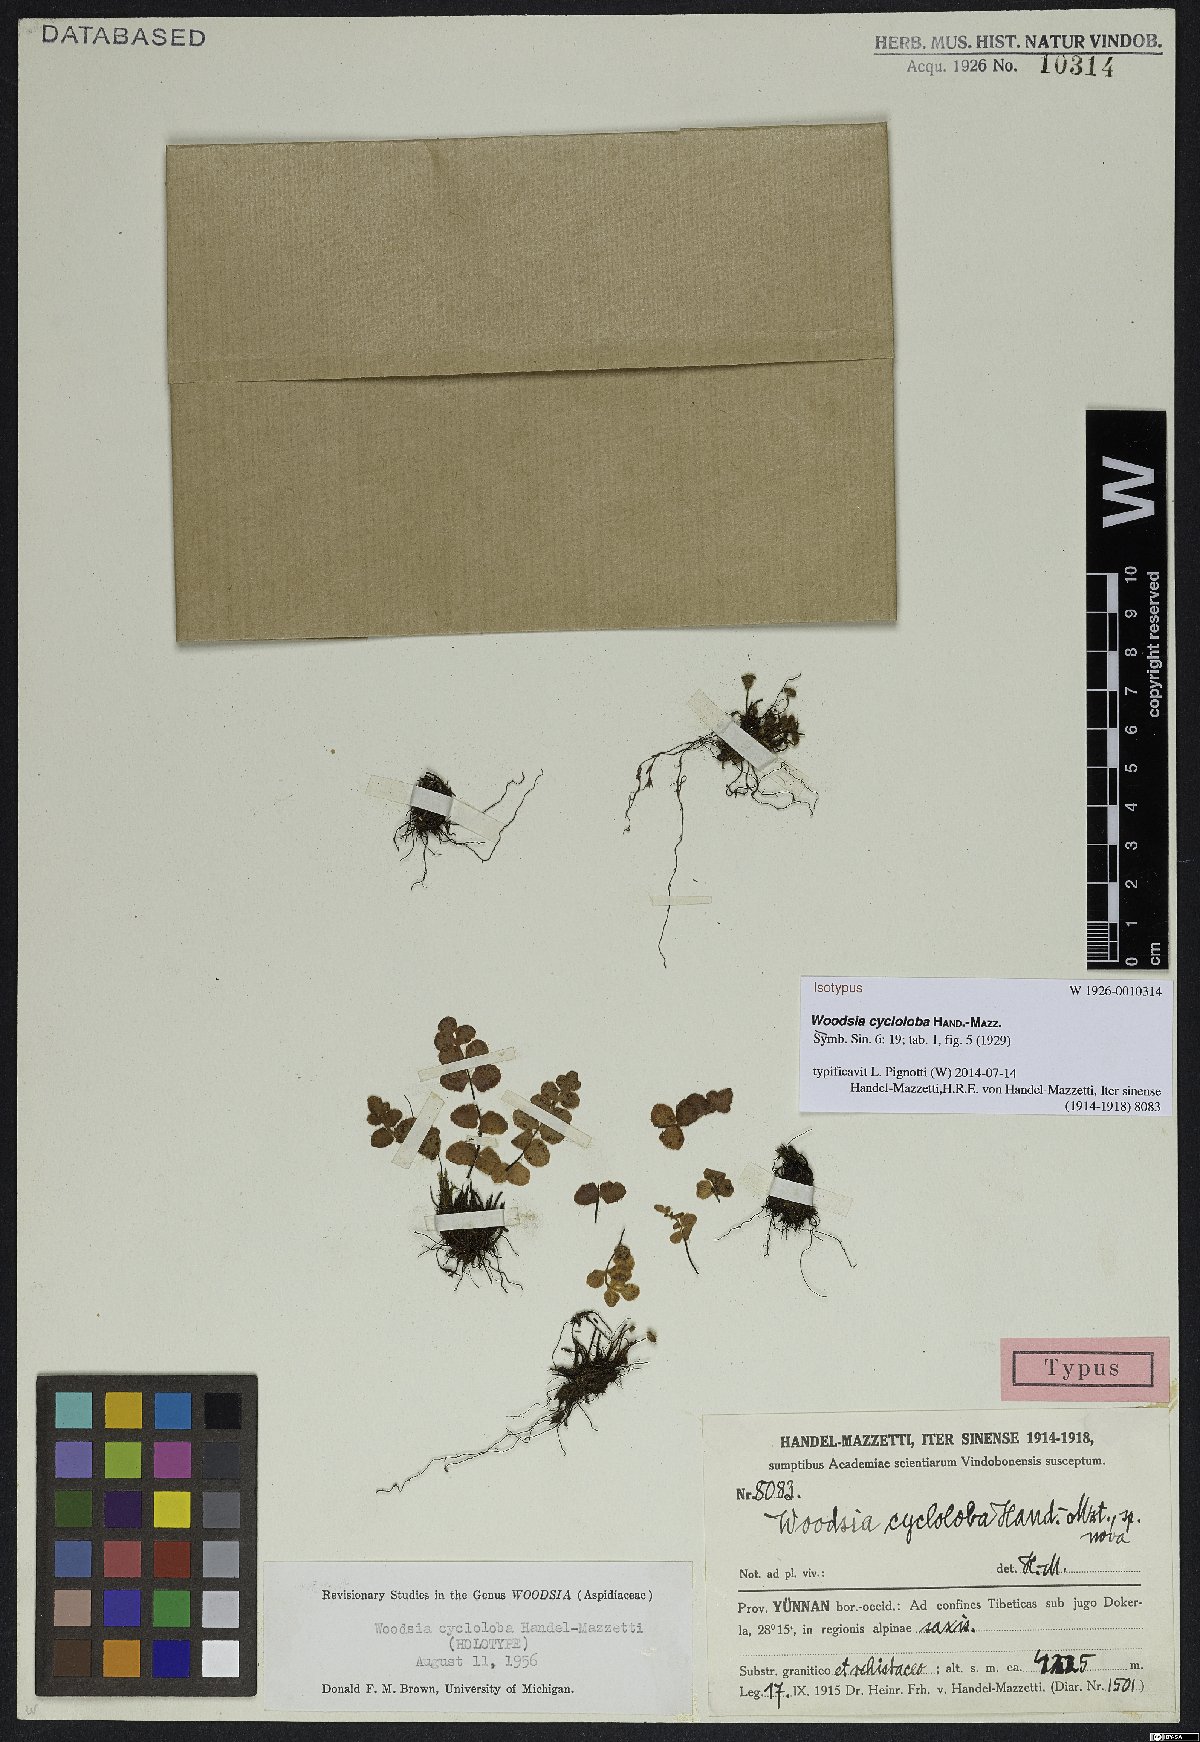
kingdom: Plantae
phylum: Tracheophyta
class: Polypodiopsida
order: Polypodiales
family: Woodsiaceae
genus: Woodsia
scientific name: Woodsia cycloloba
